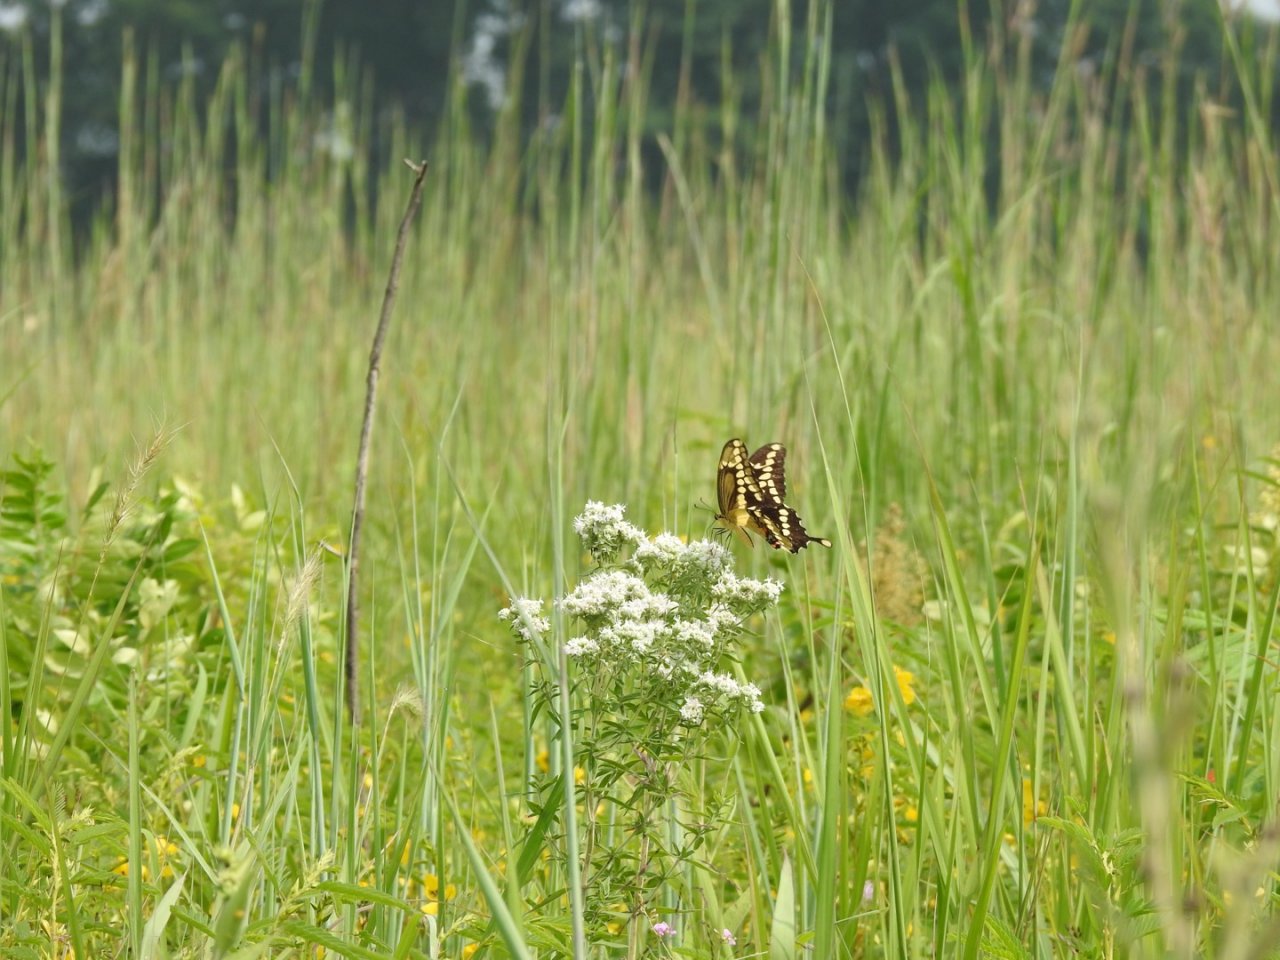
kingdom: Animalia
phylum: Arthropoda
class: Insecta
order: Lepidoptera
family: Papilionidae
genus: Papilio
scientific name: Papilio cresphontes
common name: Eastern Giant Swallowtail
